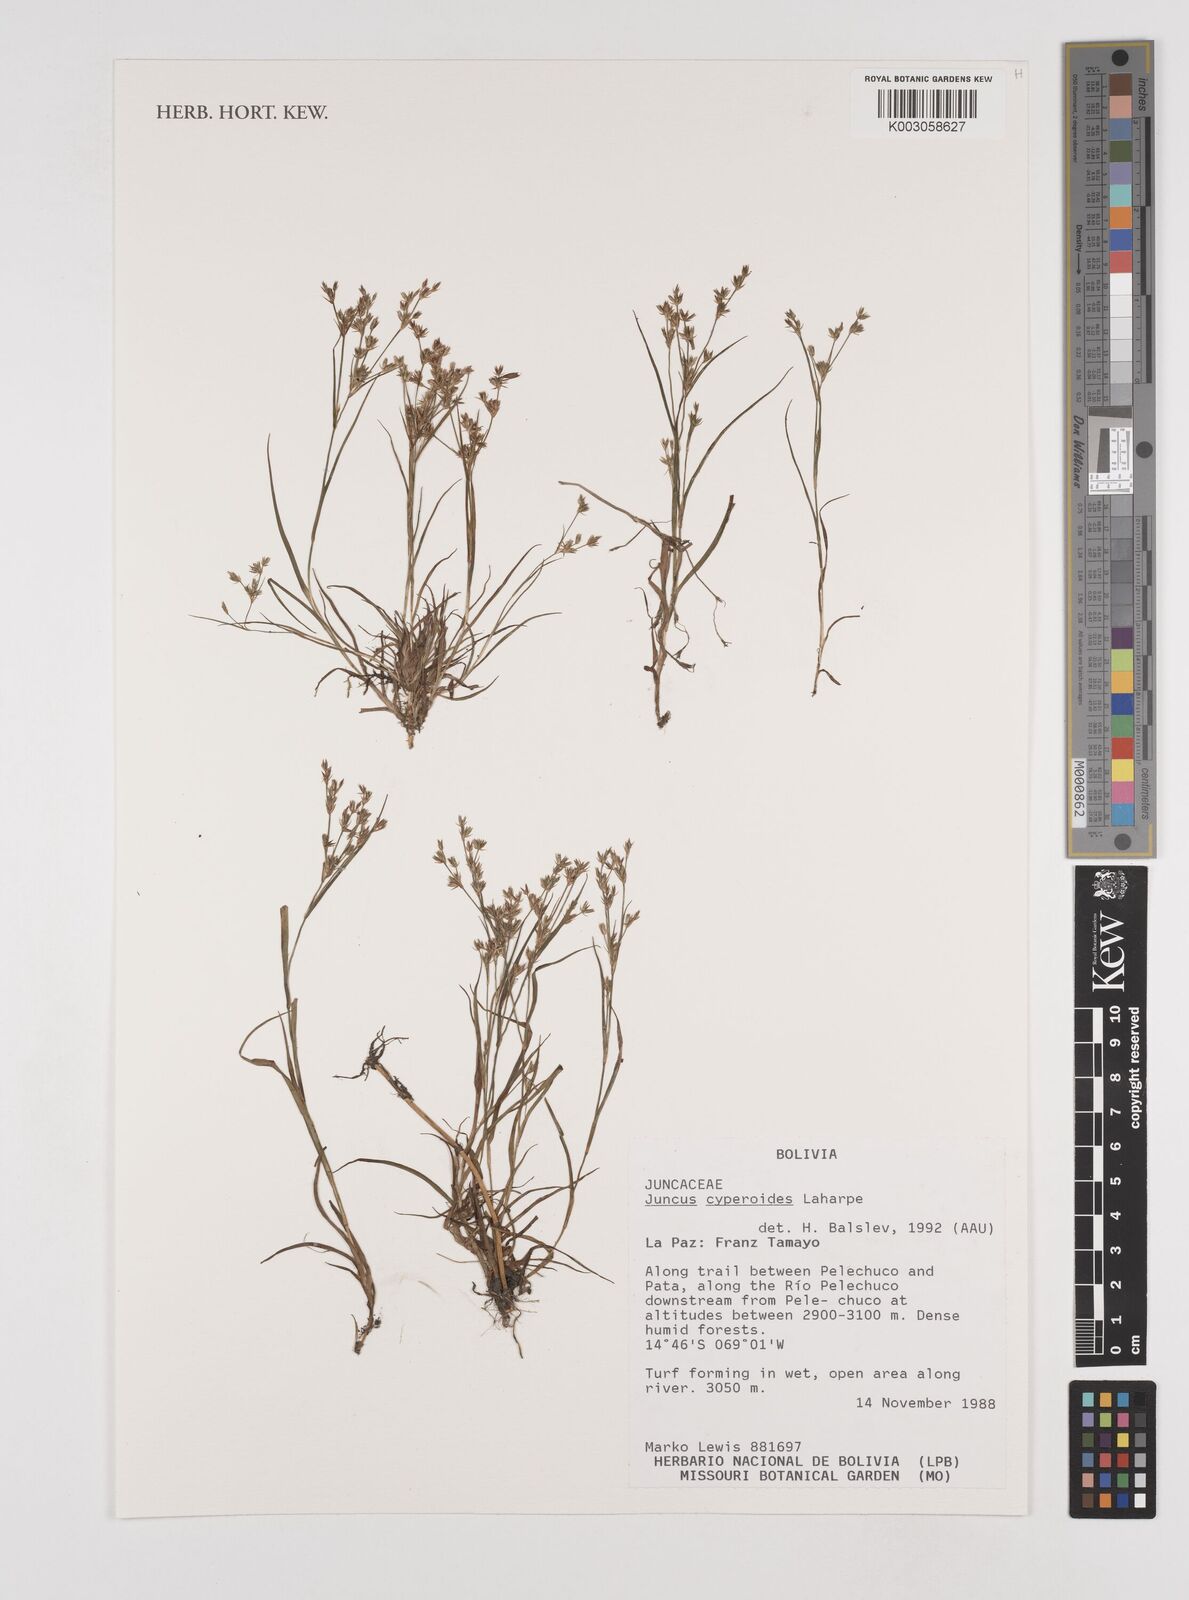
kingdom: Plantae
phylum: Tracheophyta
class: Liliopsida
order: Poales
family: Juncaceae
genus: Juncus
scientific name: Juncus cyperoides
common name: Forbestown rush
